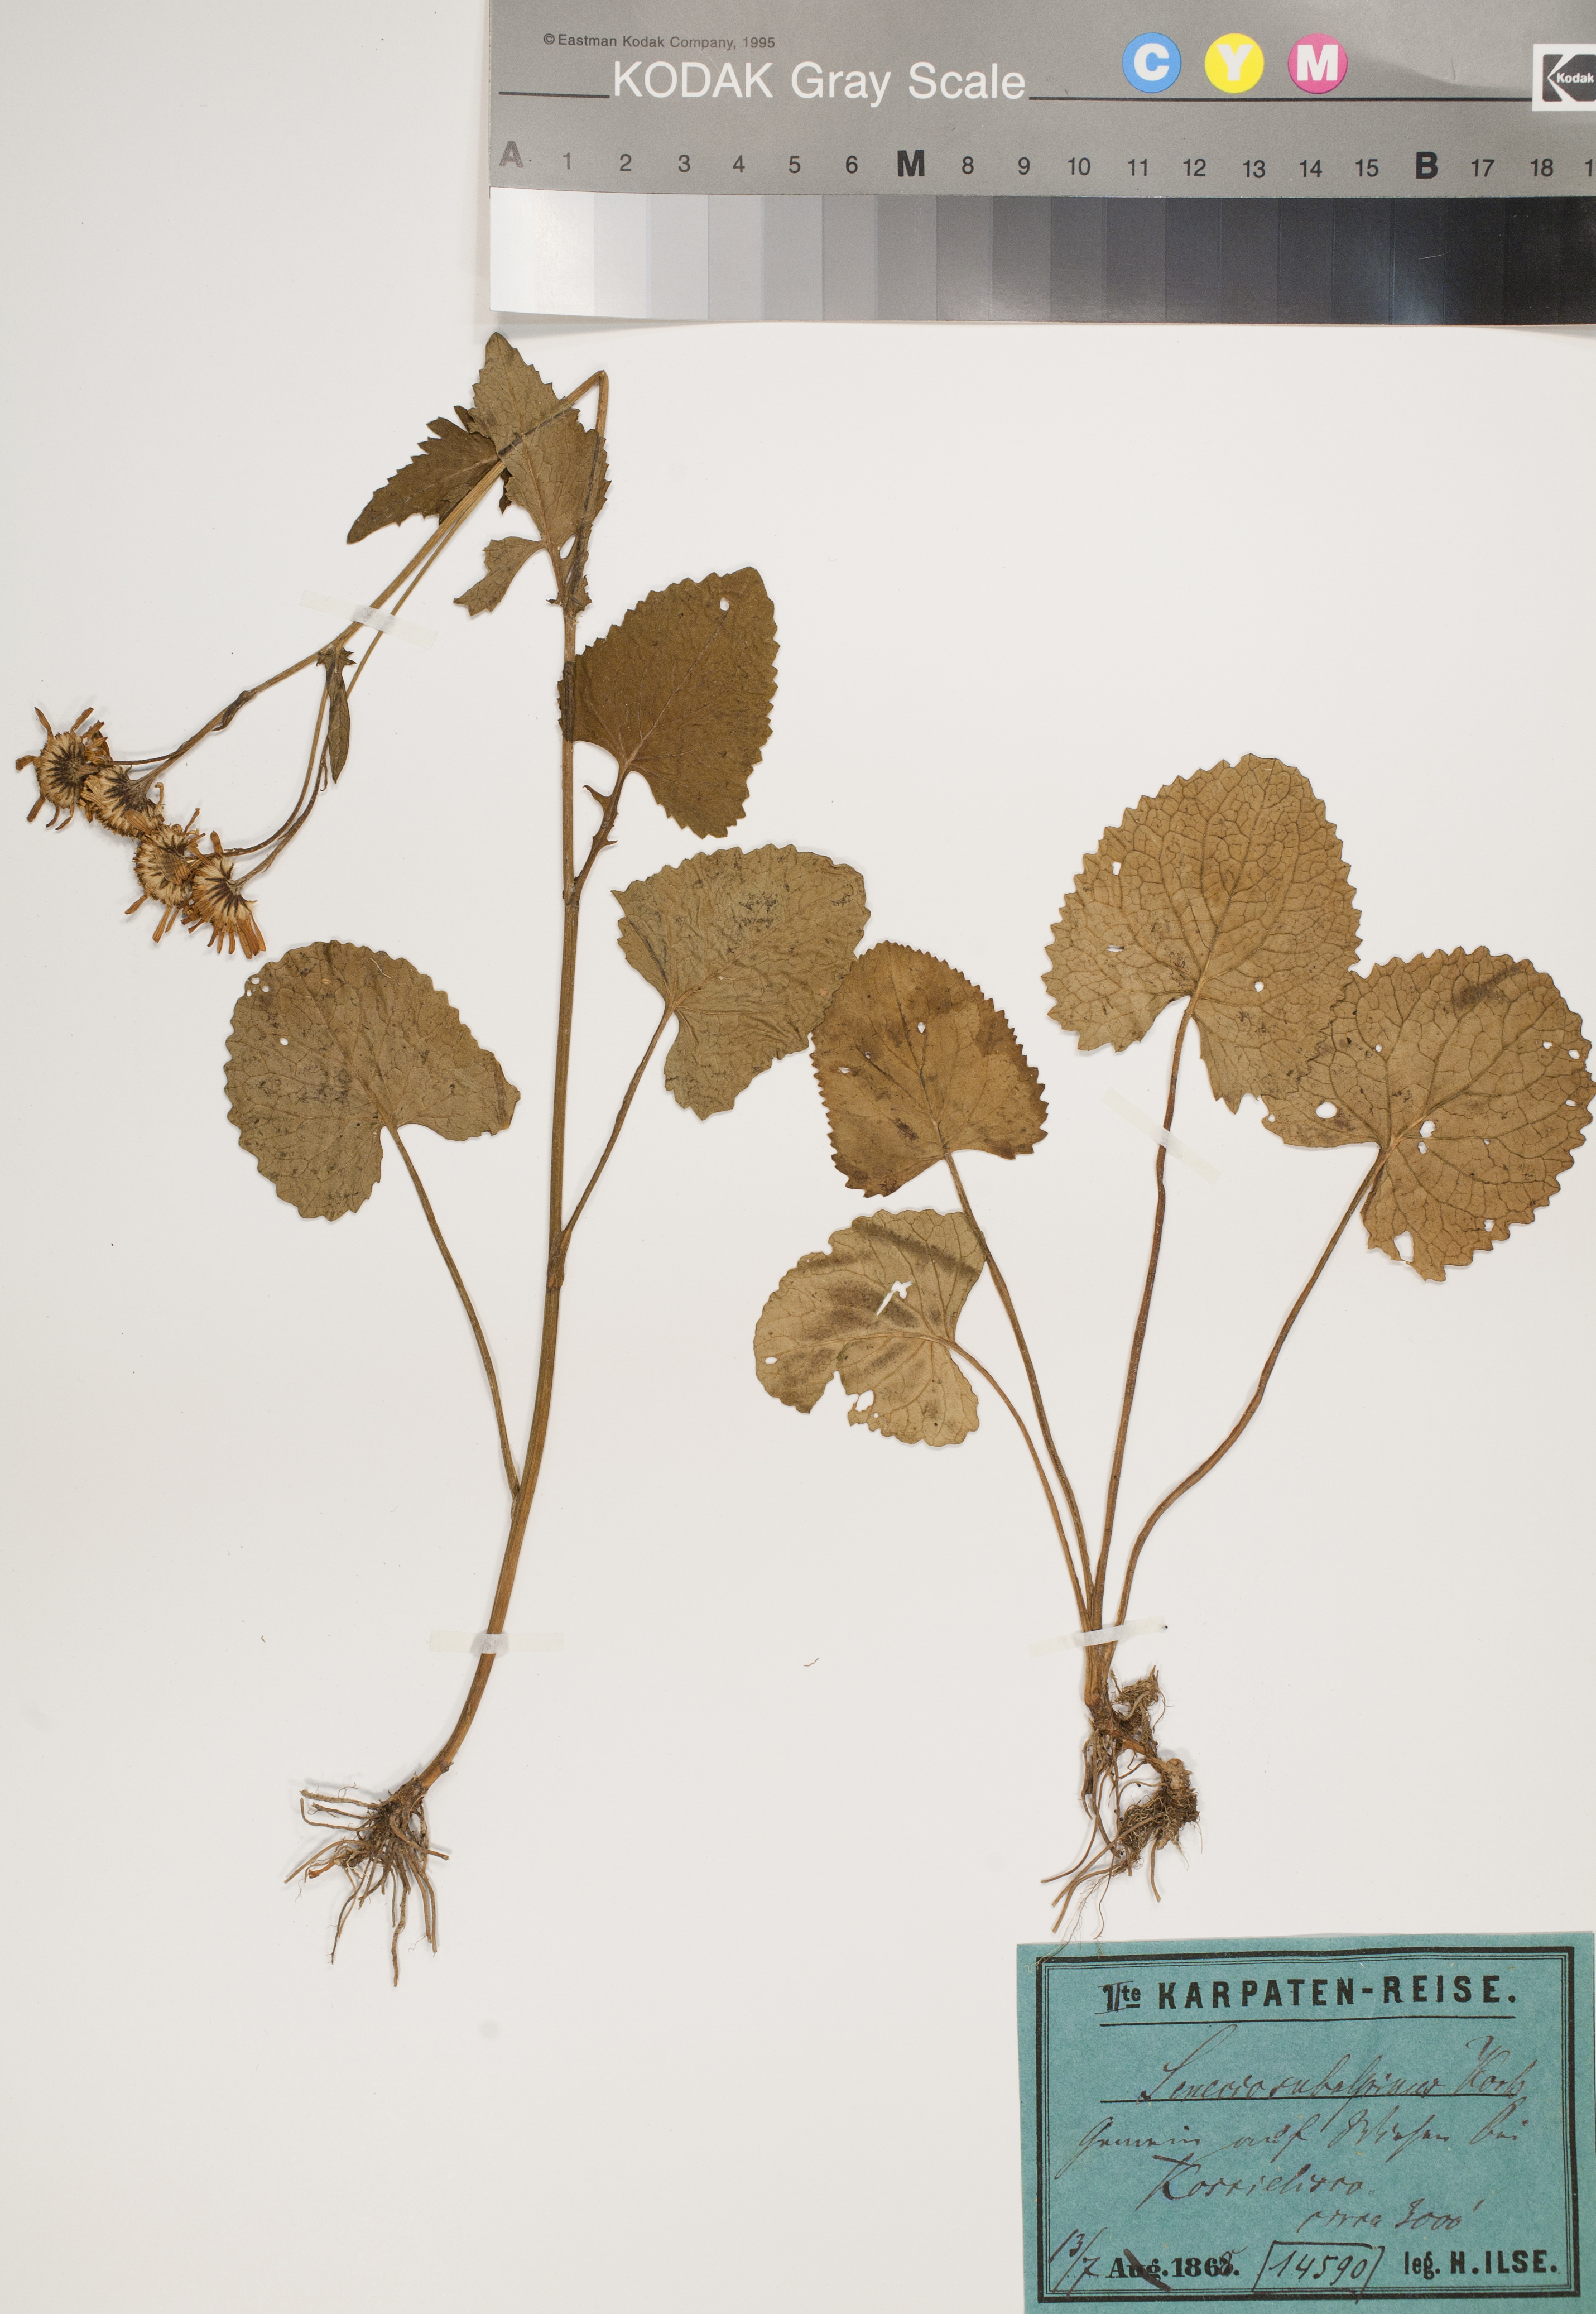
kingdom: Plantae
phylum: Tracheophyta
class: Magnoliopsida
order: Asterales
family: Asteraceae
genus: Jacobaea
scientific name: Jacobaea subalpina
